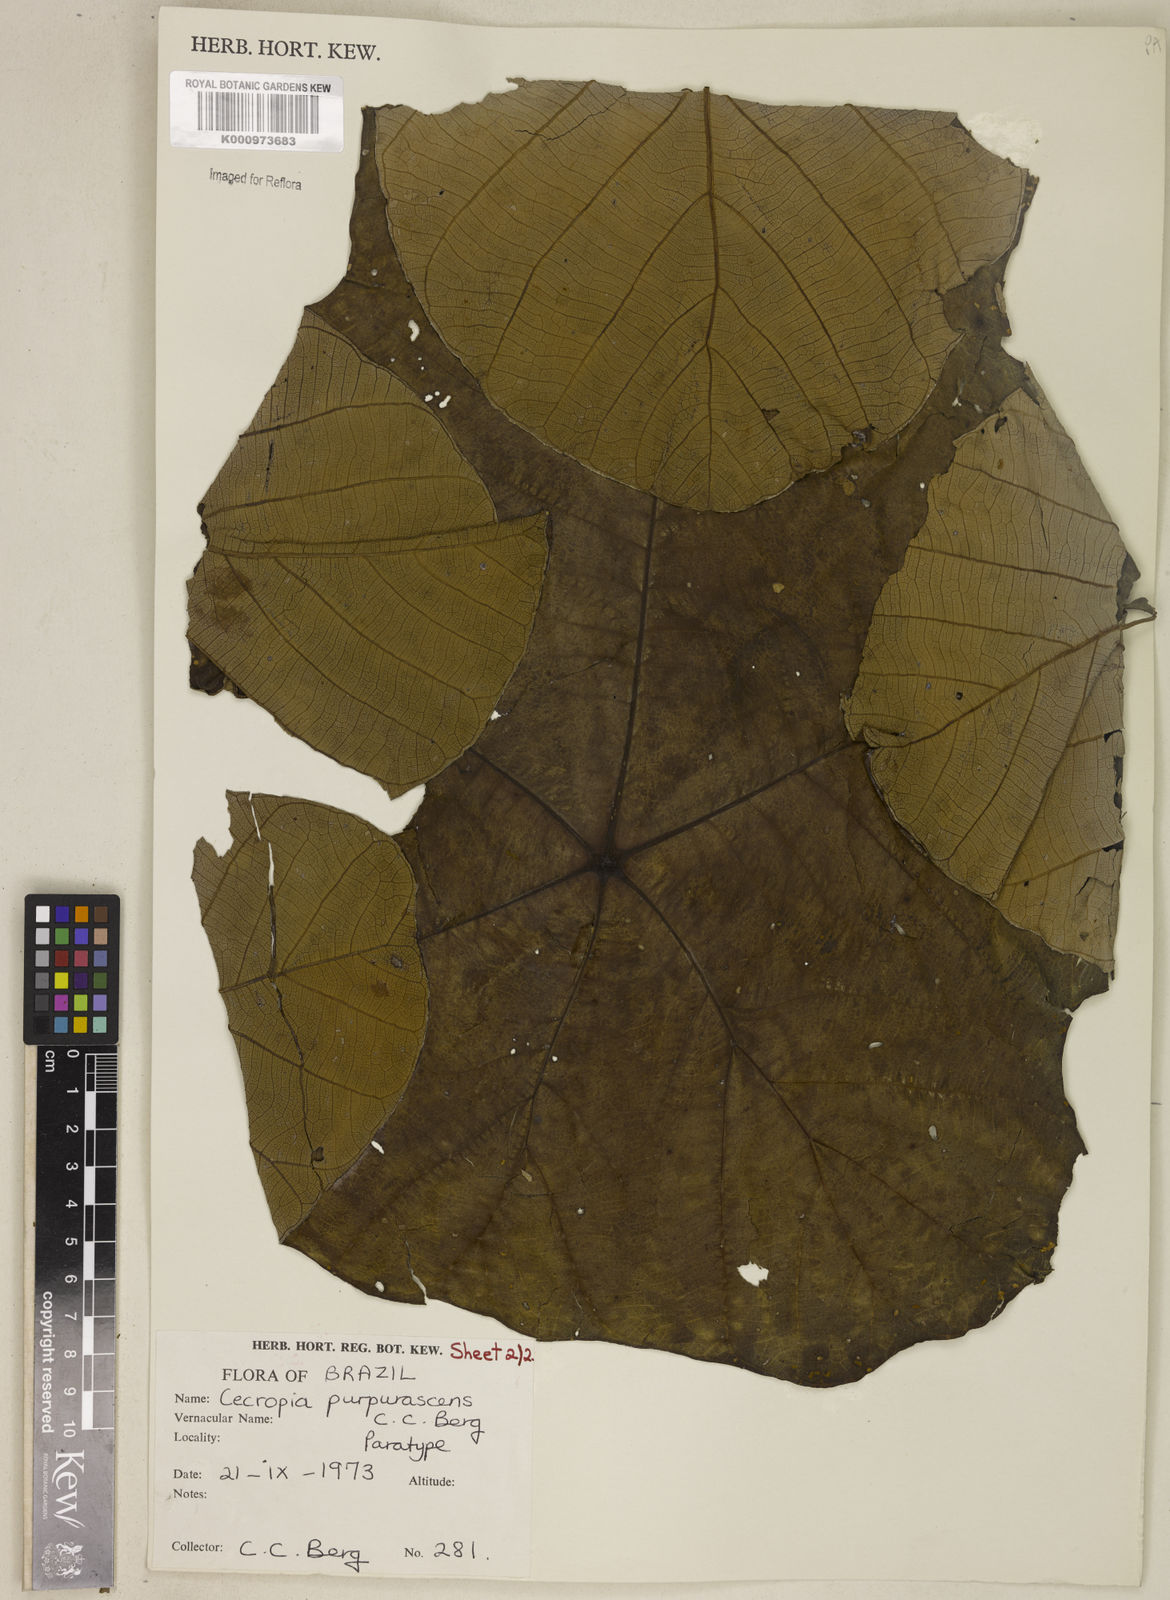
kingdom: Plantae
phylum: Tracheophyta
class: Magnoliopsida
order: Rosales
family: Urticaceae
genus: Cecropia
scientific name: Cecropia purpurascens
